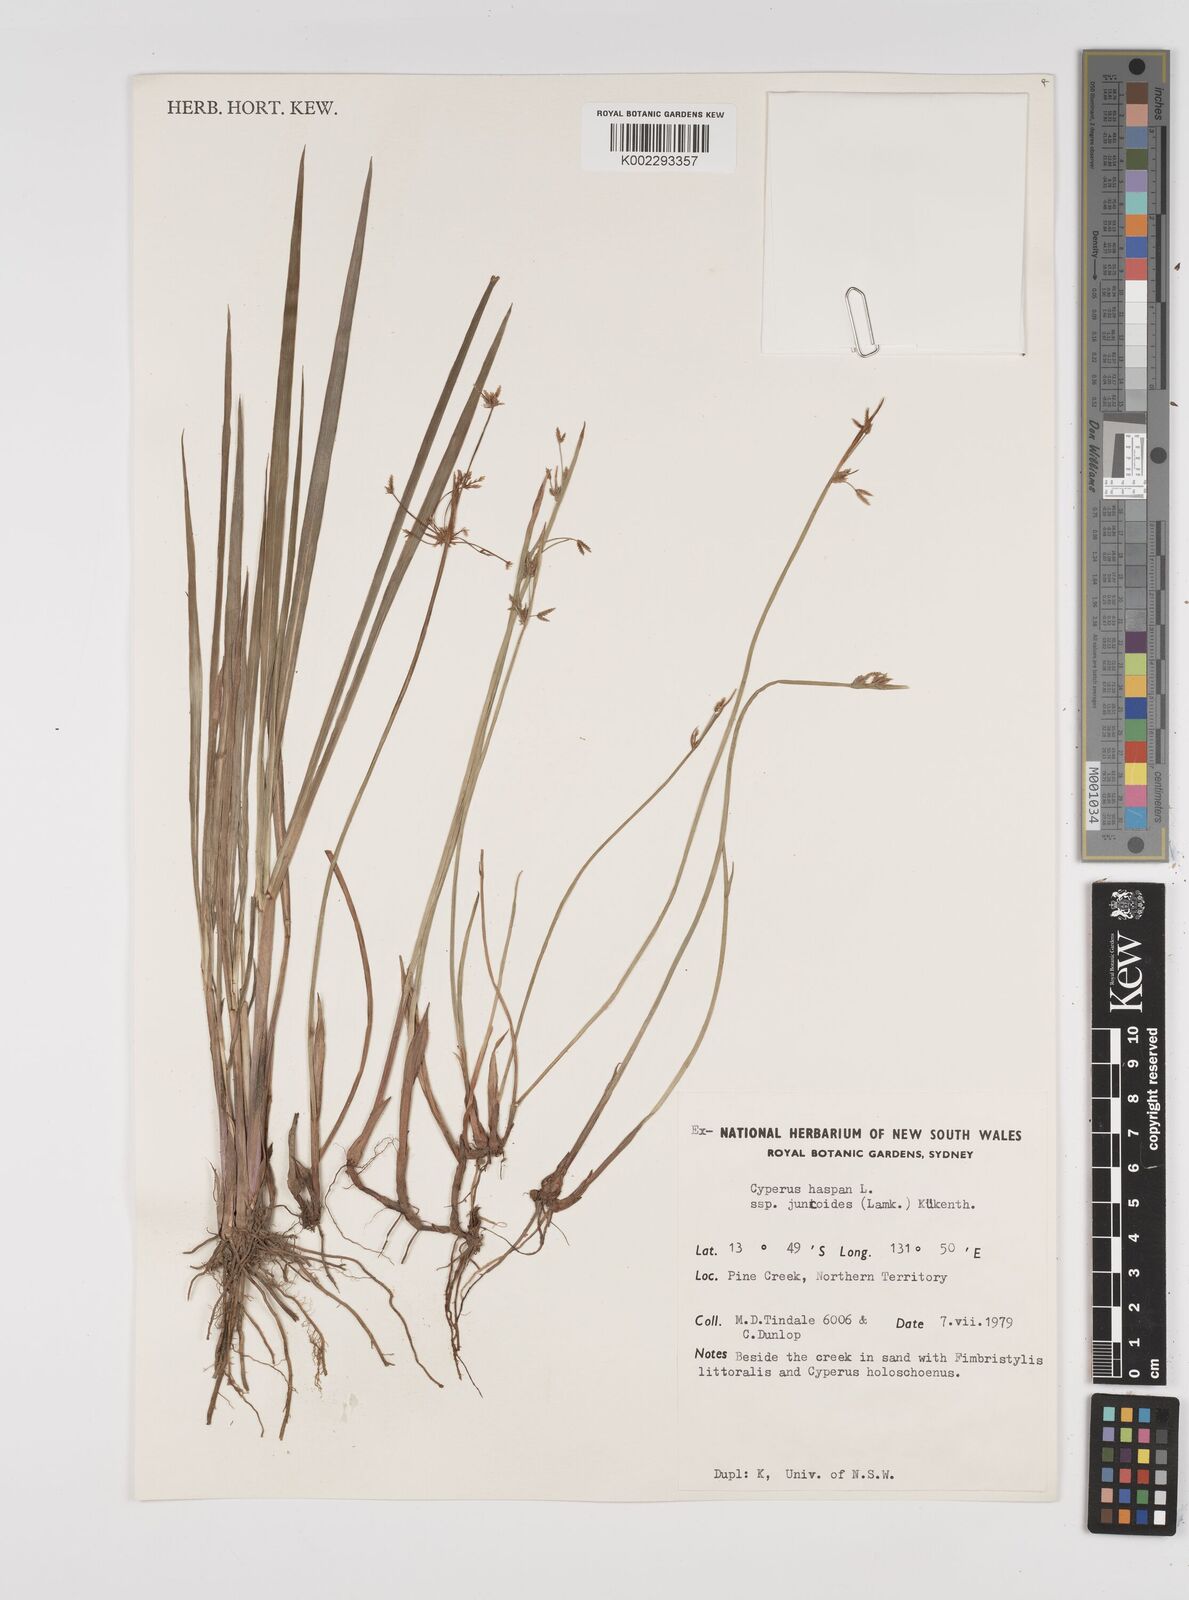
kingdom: Plantae
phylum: Tracheophyta
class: Liliopsida
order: Poales
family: Cyperaceae
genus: Cyperus
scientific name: Cyperus haspan
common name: Haspan flatsedge
